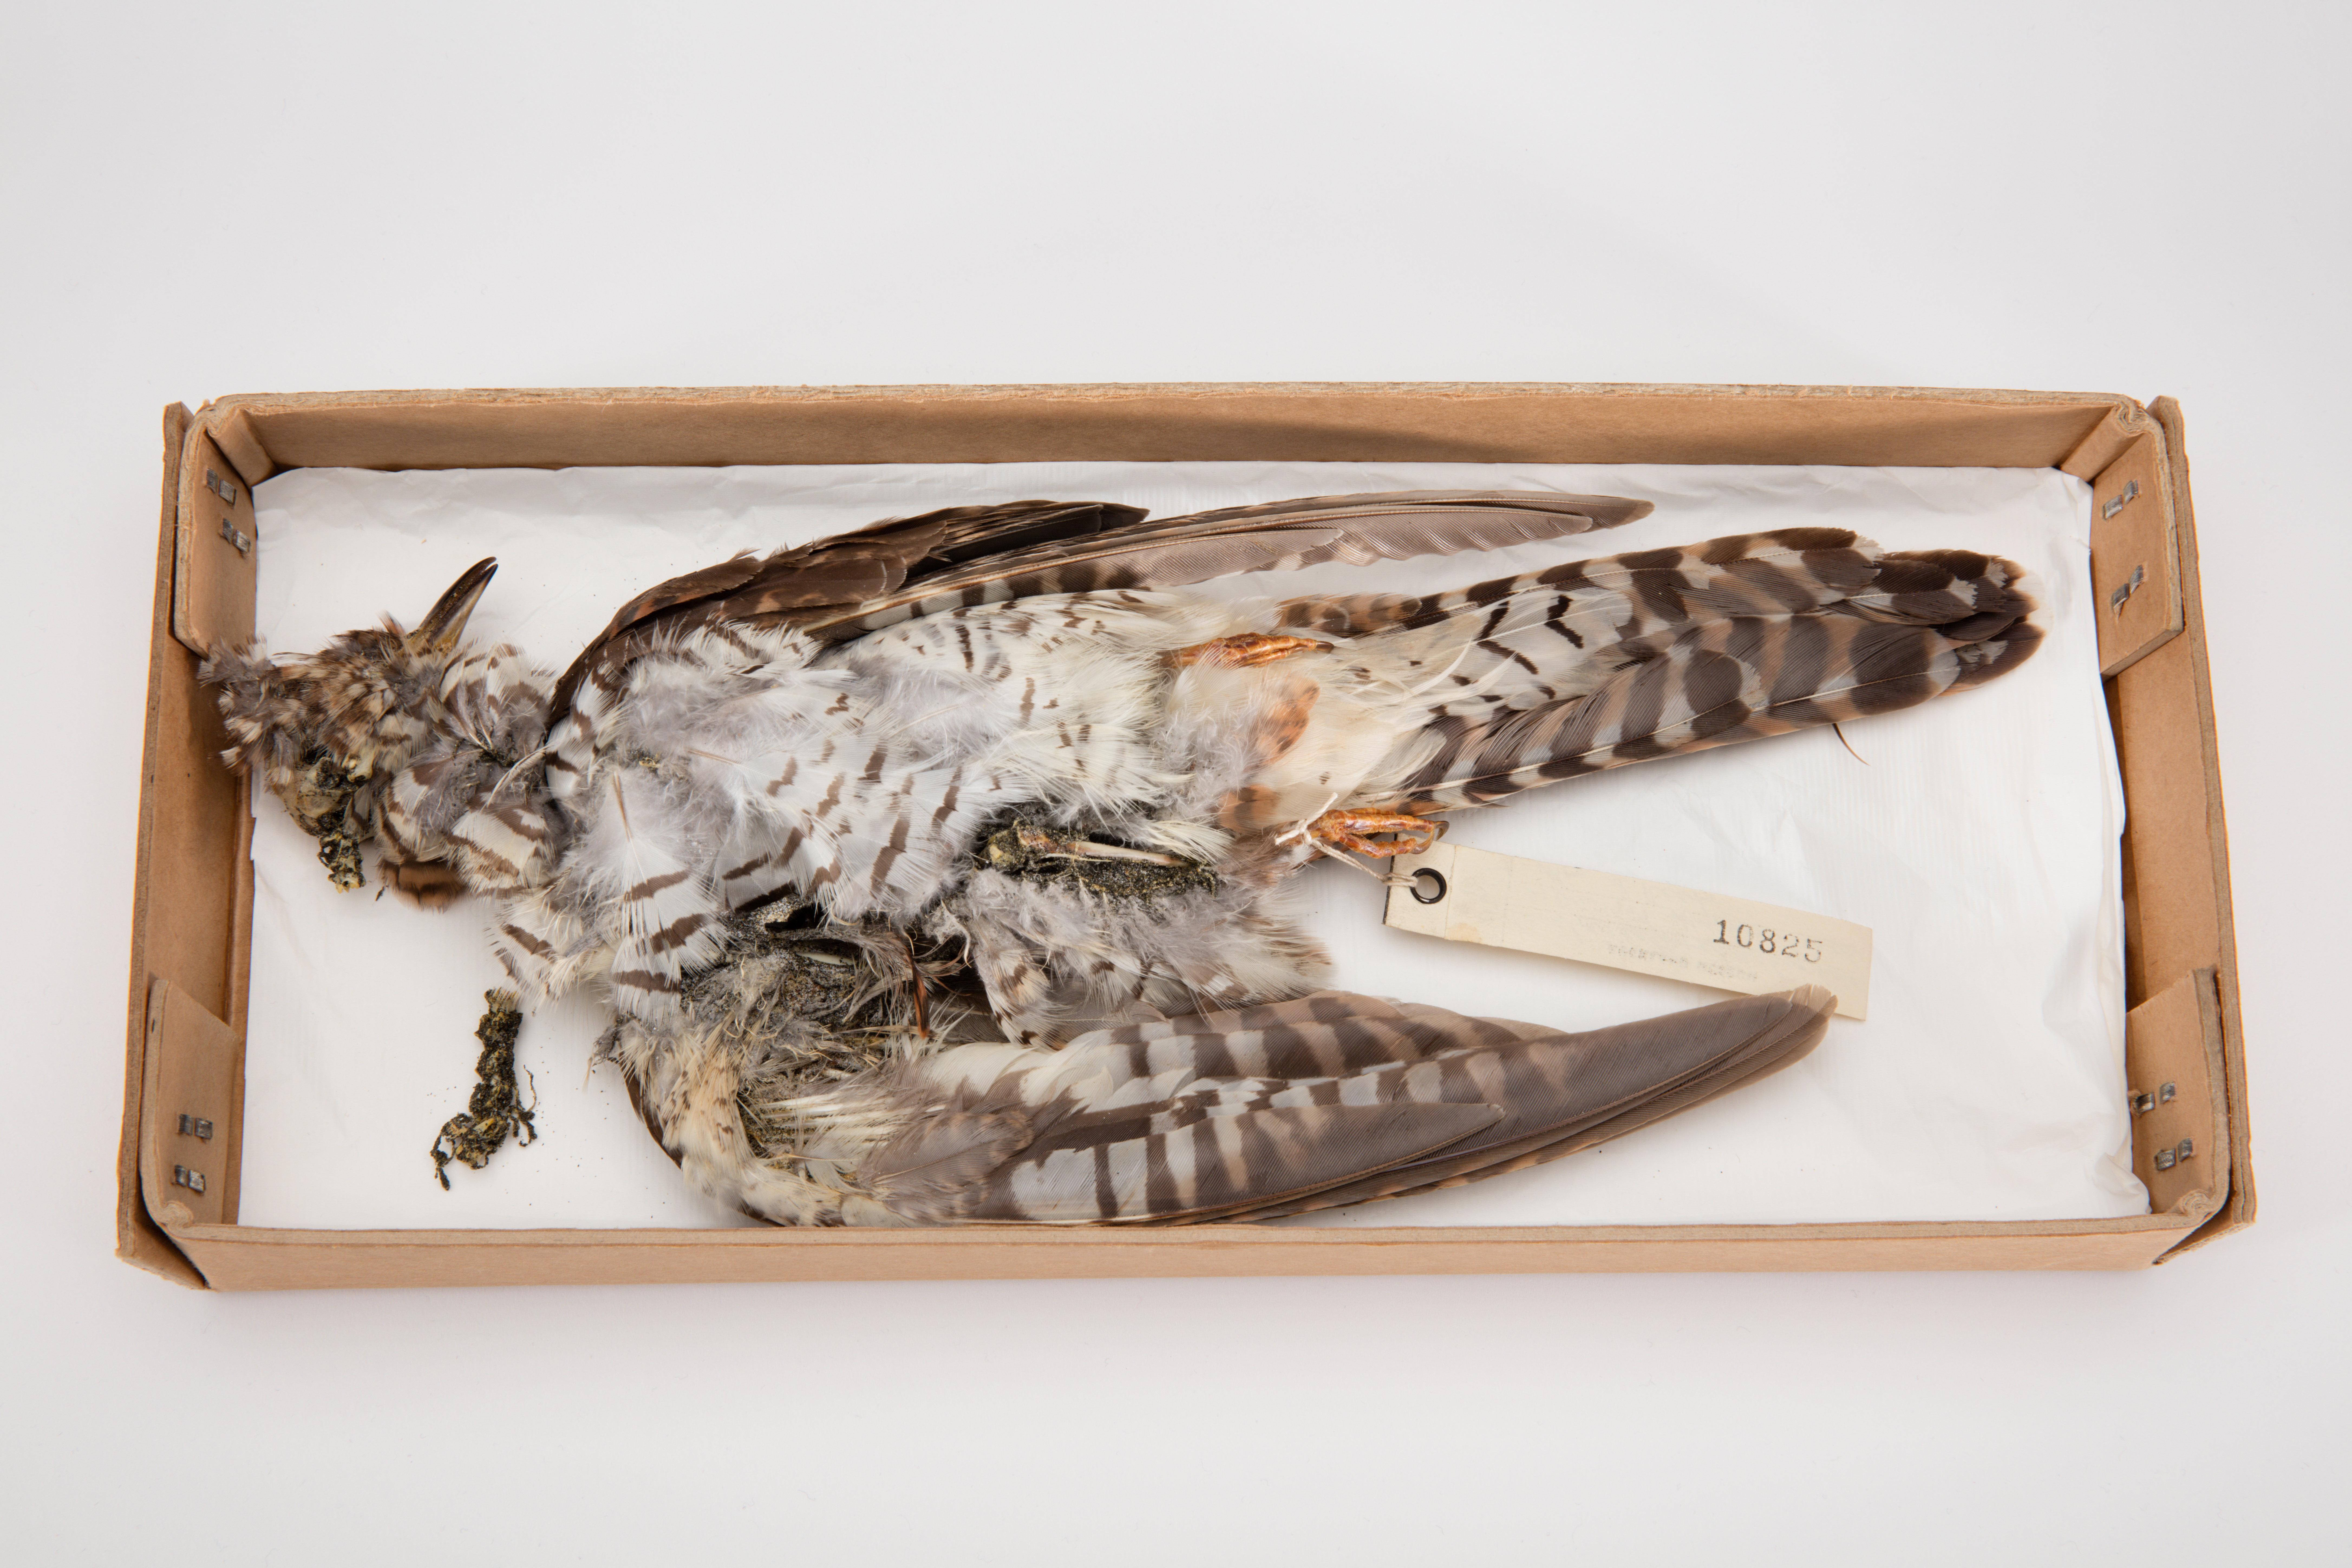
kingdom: Animalia
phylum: Chordata
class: Aves
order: Cuculiformes
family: Cuculidae
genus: Cuculus
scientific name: Cuculus optatus
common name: Oriental cuckoo
